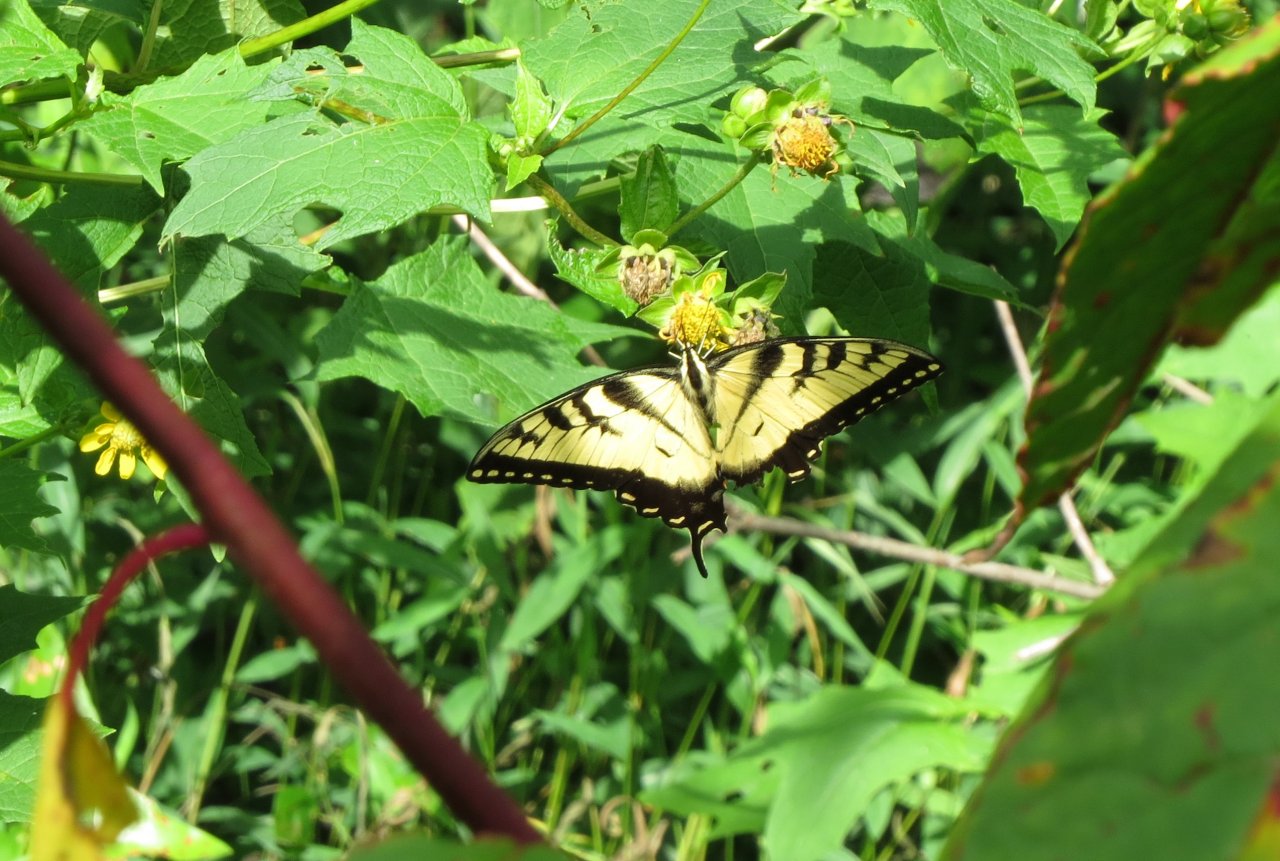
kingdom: Animalia
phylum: Arthropoda
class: Insecta
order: Lepidoptera
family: Papilionidae
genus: Pterourus
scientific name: Pterourus glaucus
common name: Eastern Tiger Swallowtail
